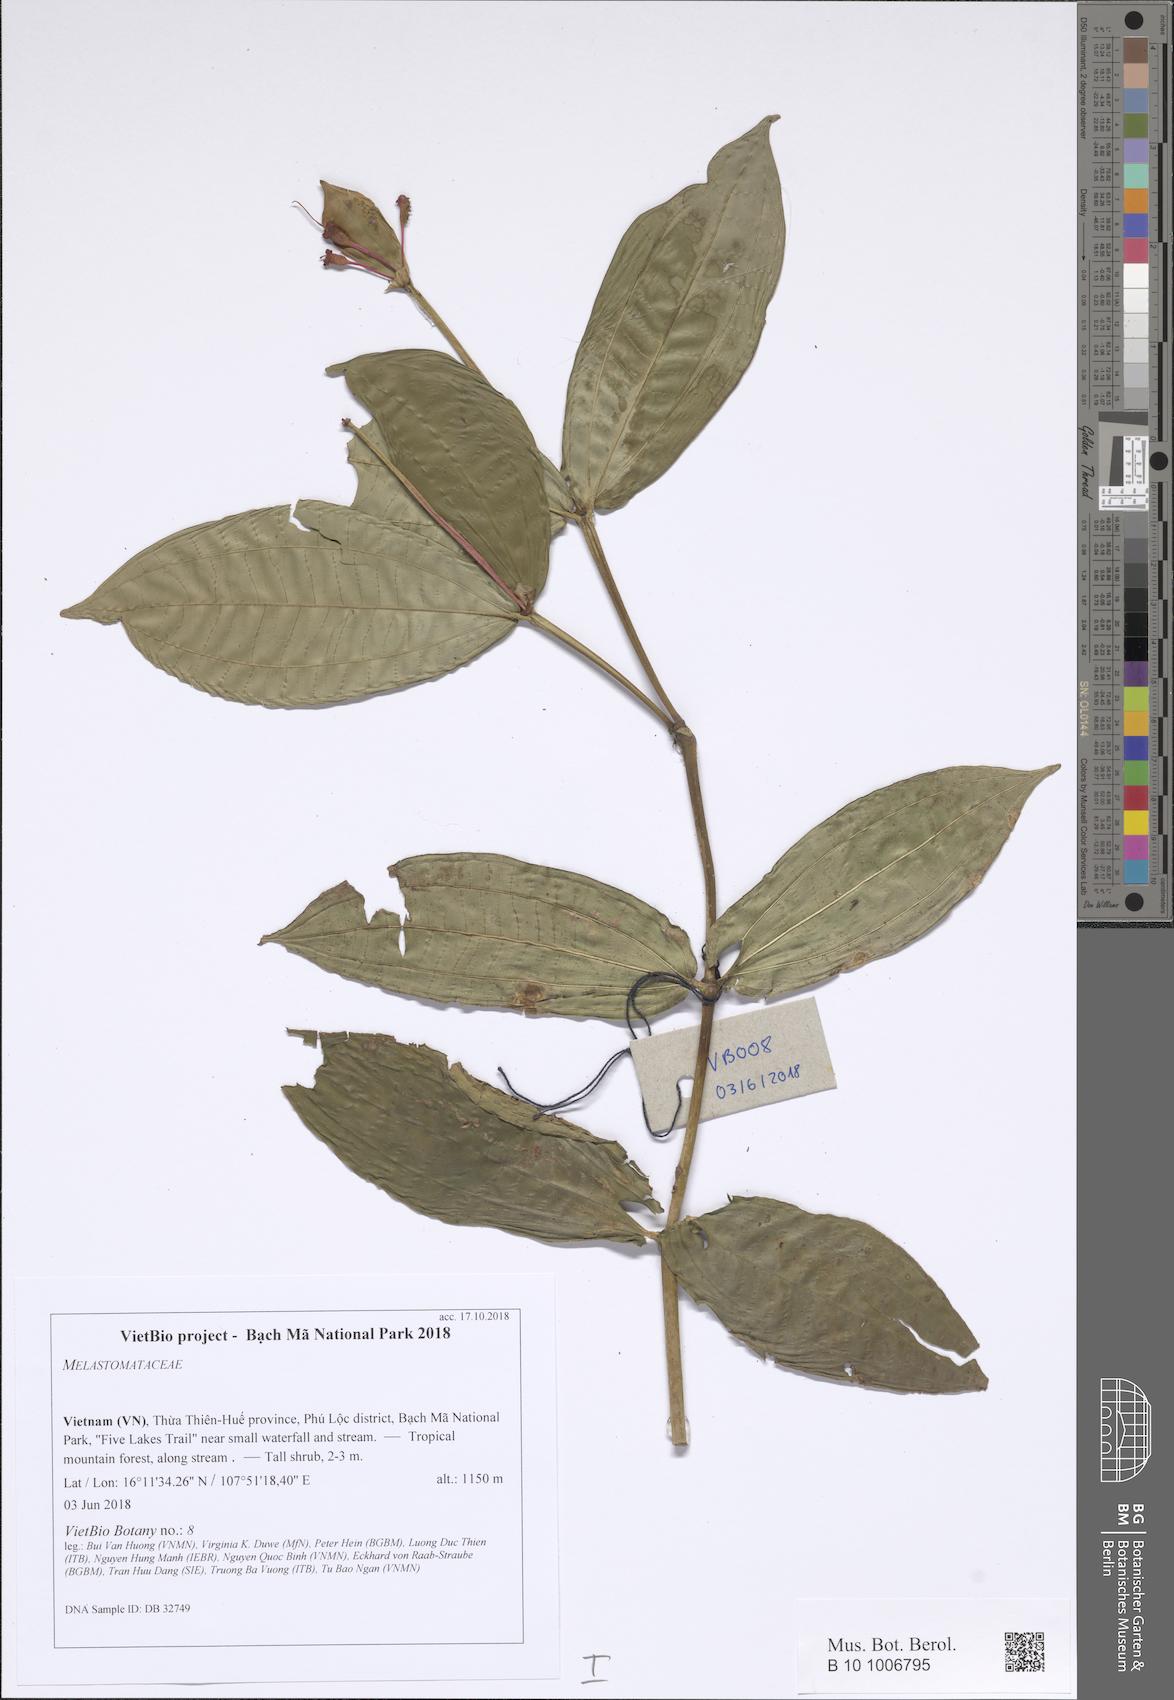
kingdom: Plantae
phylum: Tracheophyta
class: Magnoliopsida
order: Myrtales
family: Melastomataceae
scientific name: Melastomataceae
